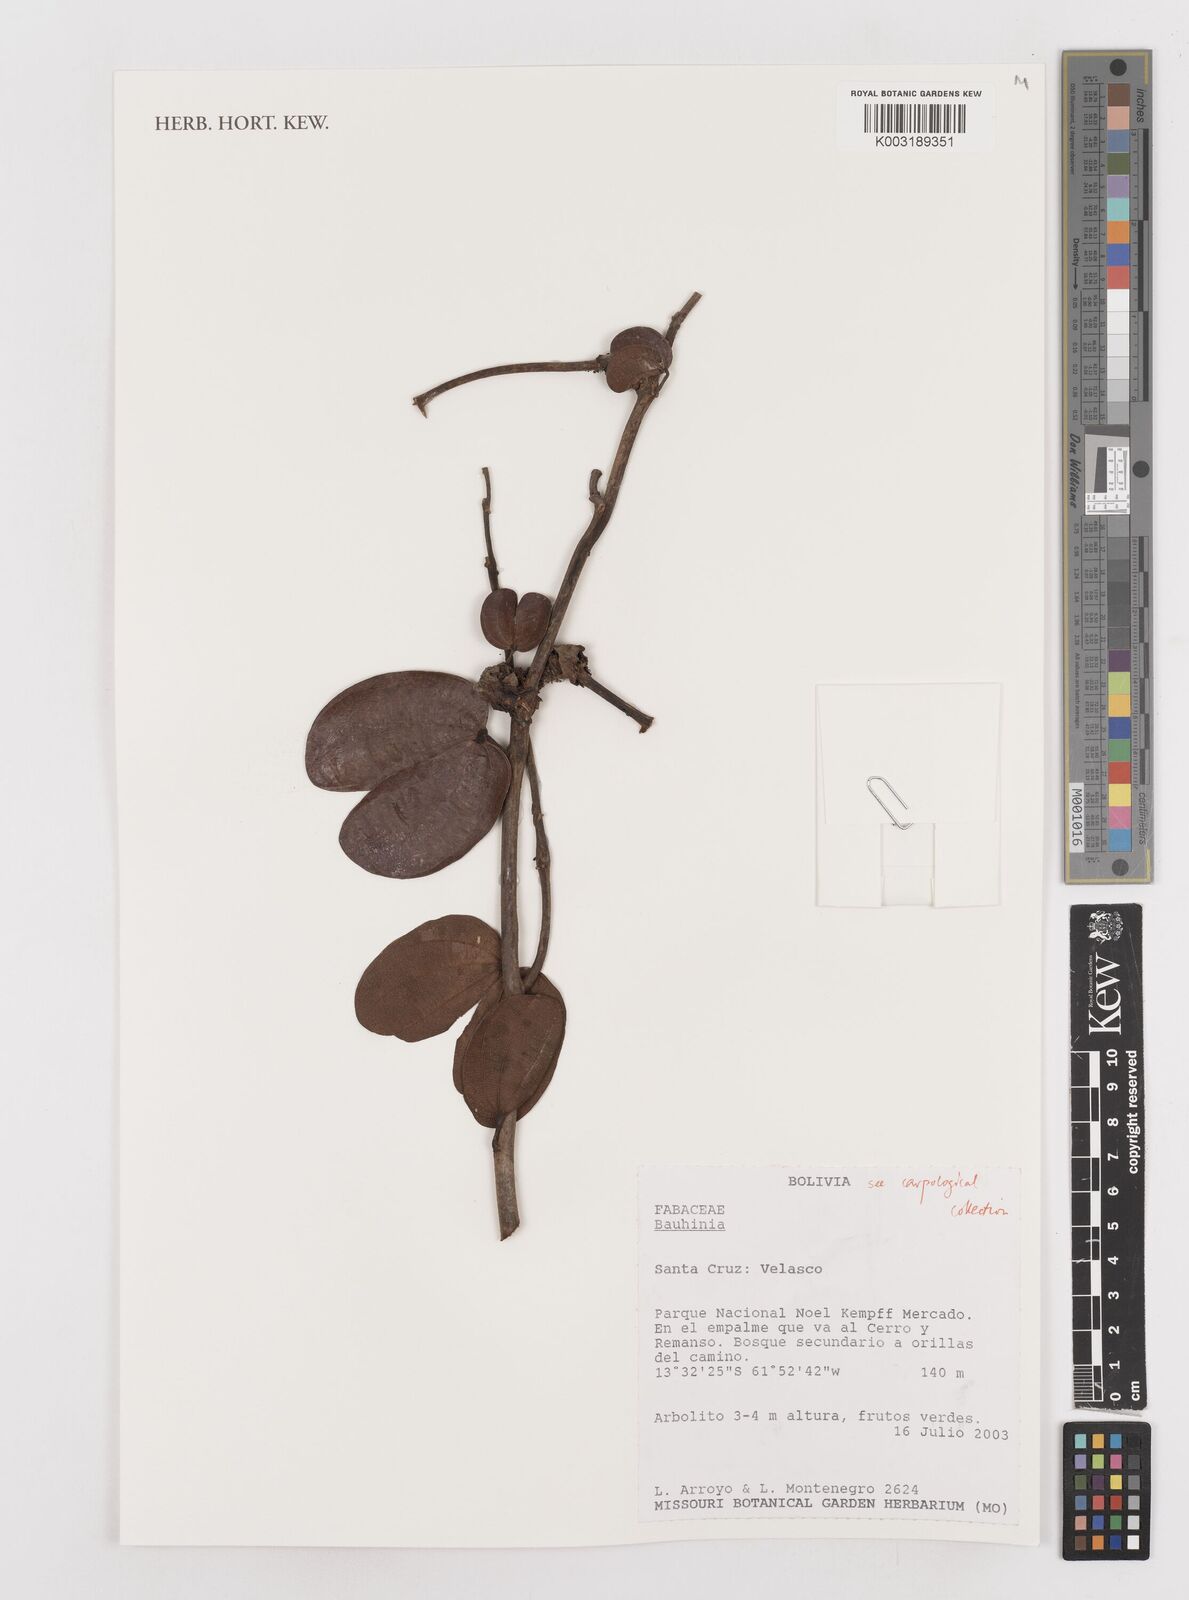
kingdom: Plantae
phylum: Tracheophyta
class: Magnoliopsida
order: Fabales
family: Fabaceae
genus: Bauhinia
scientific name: Bauhinia
